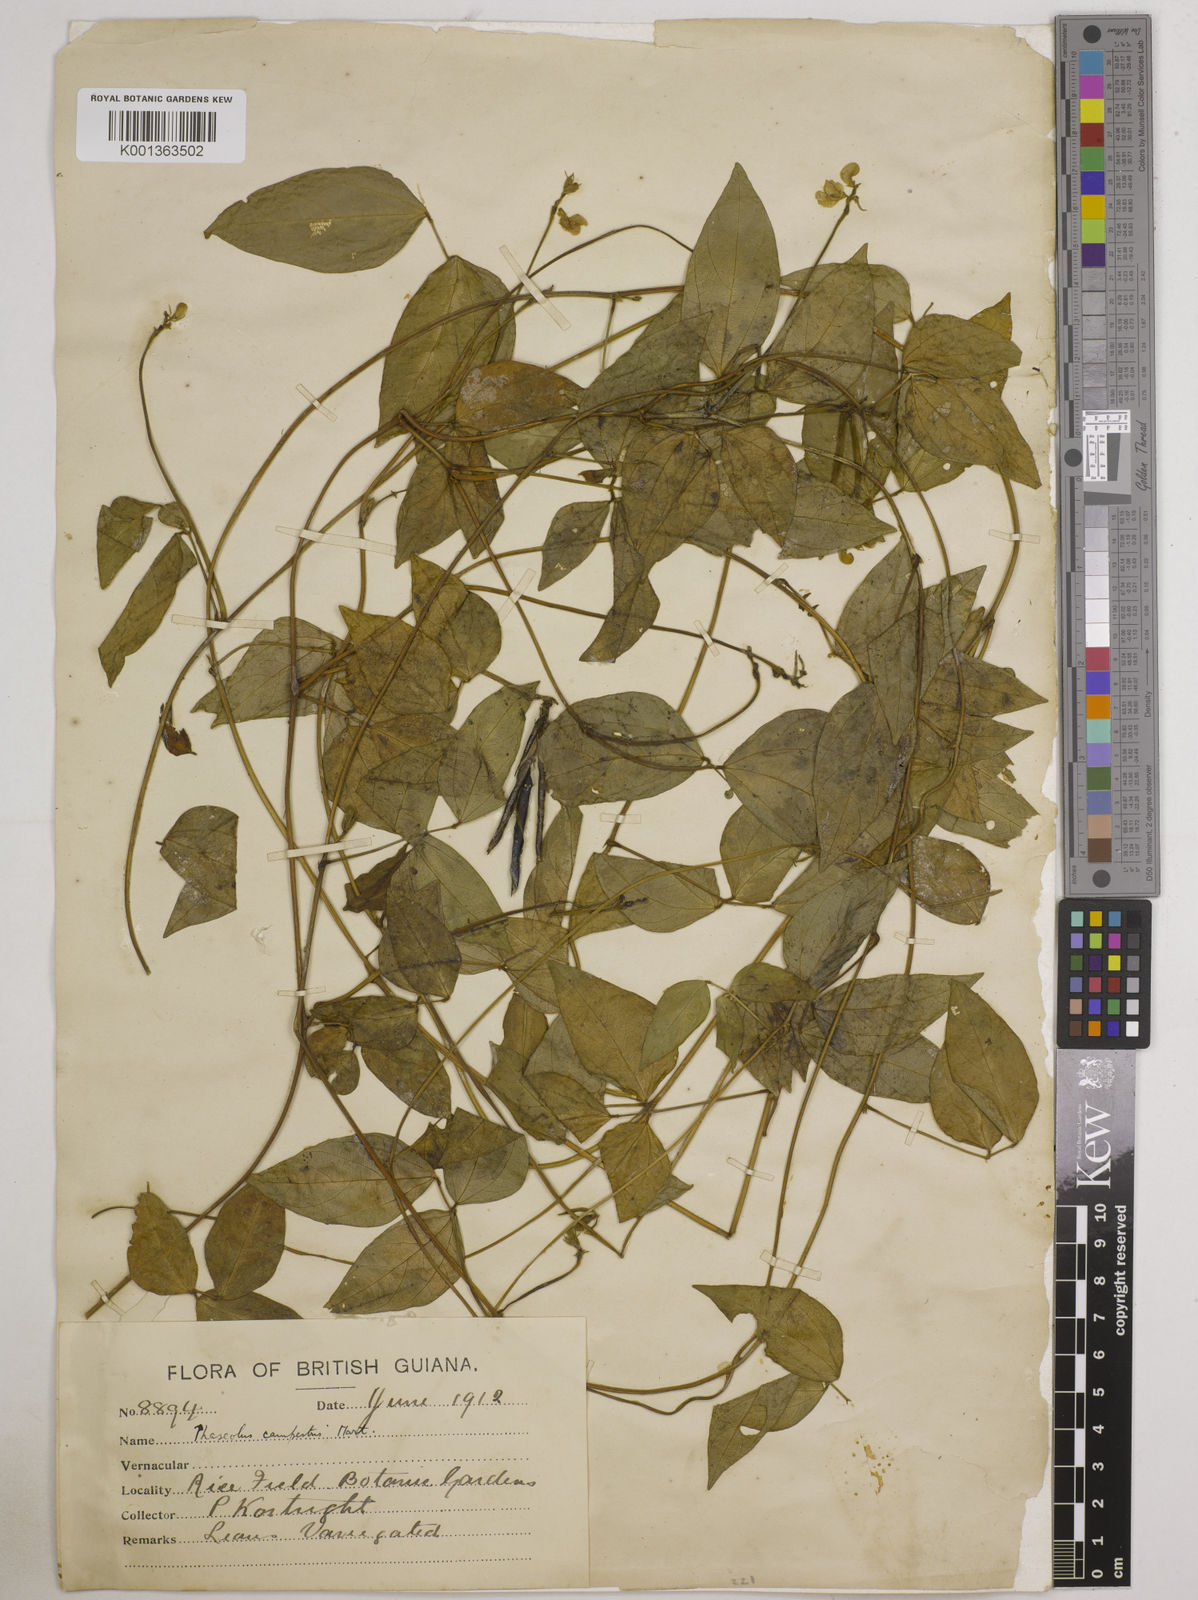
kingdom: Plantae
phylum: Tracheophyta
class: Magnoliopsida
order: Fabales
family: Fabaceae
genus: Vigna
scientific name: Vigna juruana
